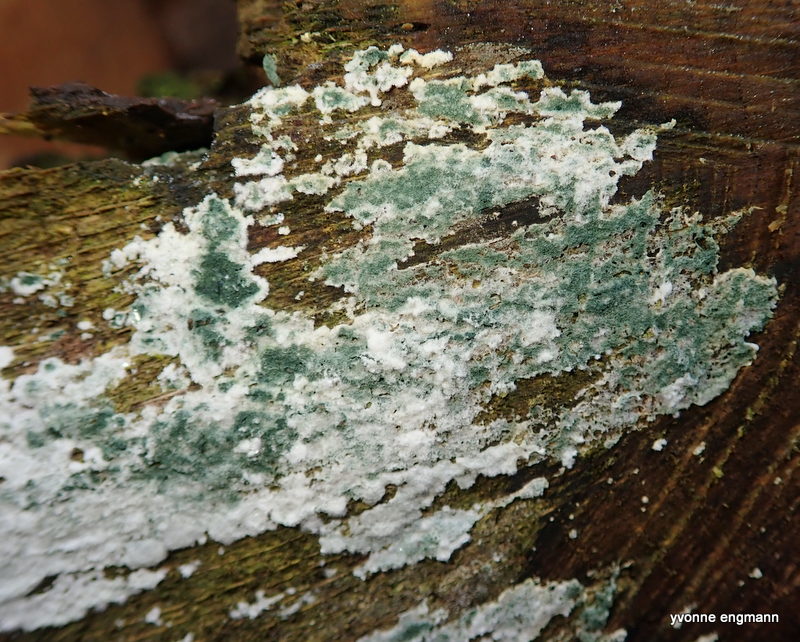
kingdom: Fungi
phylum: Ascomycota
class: Sordariomycetes
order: Hypocreales
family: Hypocreaceae
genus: Trichoderma
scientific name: Trichoderma
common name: kødkerne
